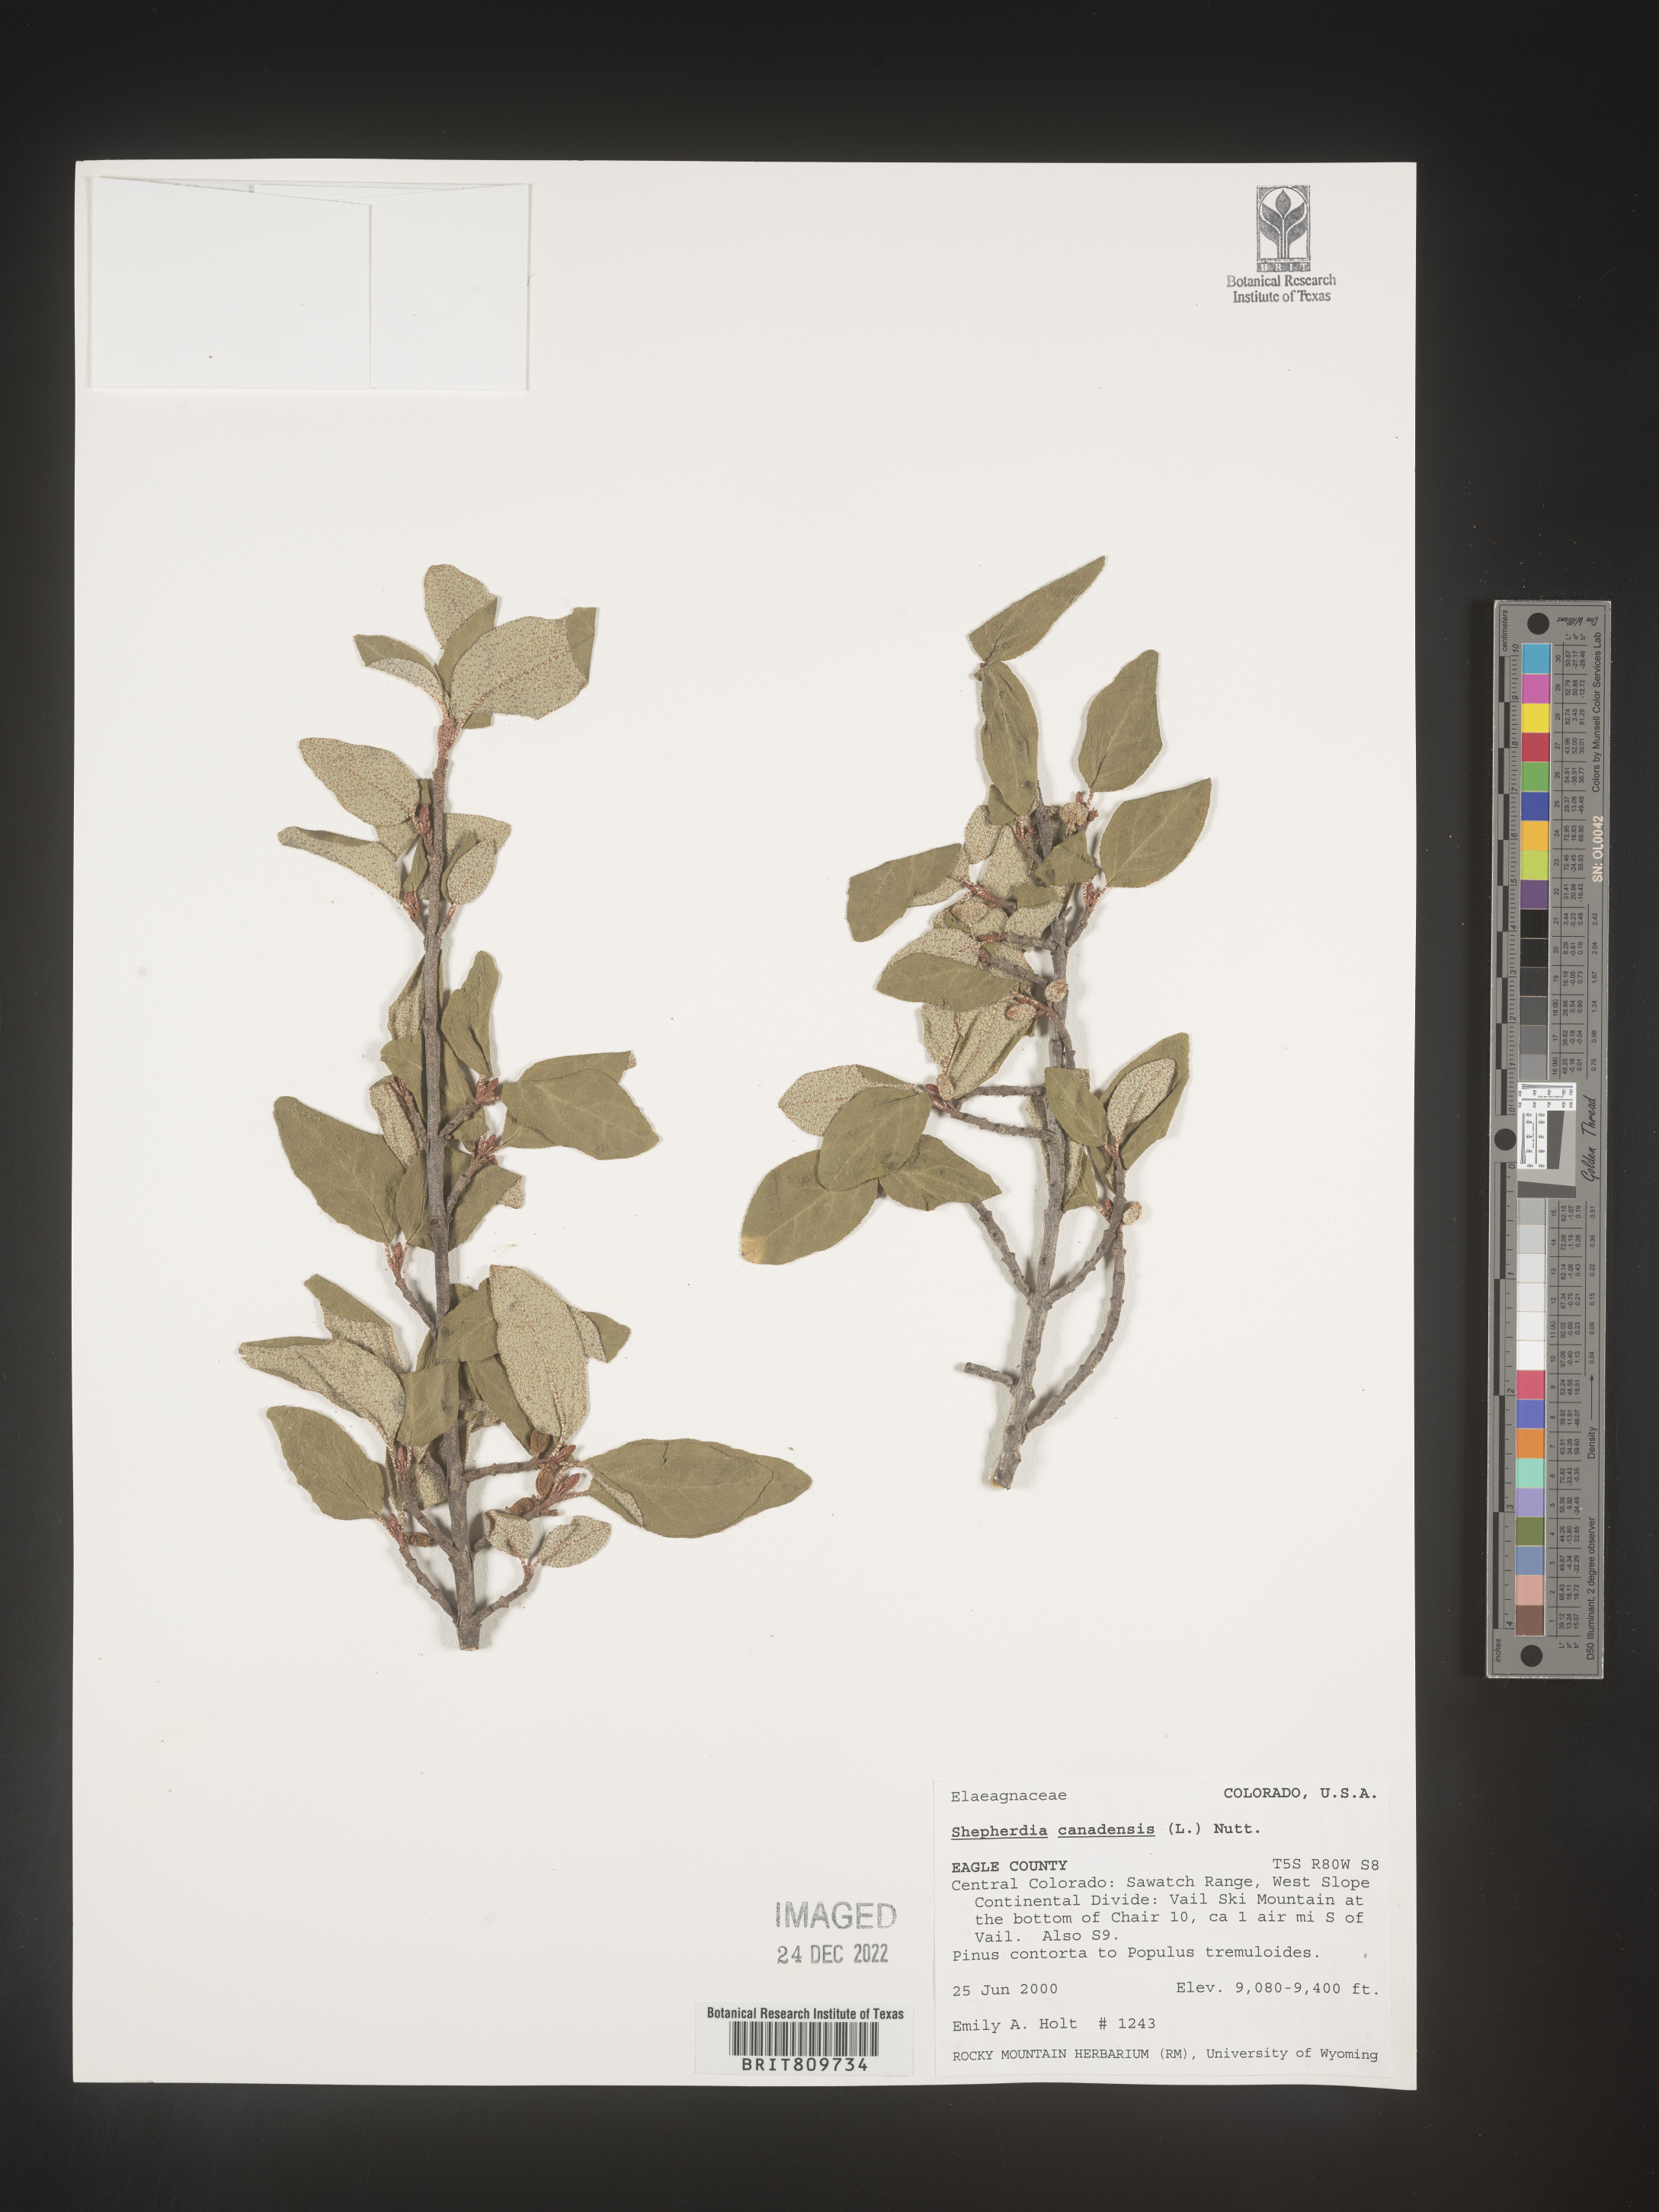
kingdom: Plantae
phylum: Tracheophyta
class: Magnoliopsida
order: Rosales
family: Elaeagnaceae
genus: Shepherdia
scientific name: Shepherdia canadensis
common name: Soapberry
